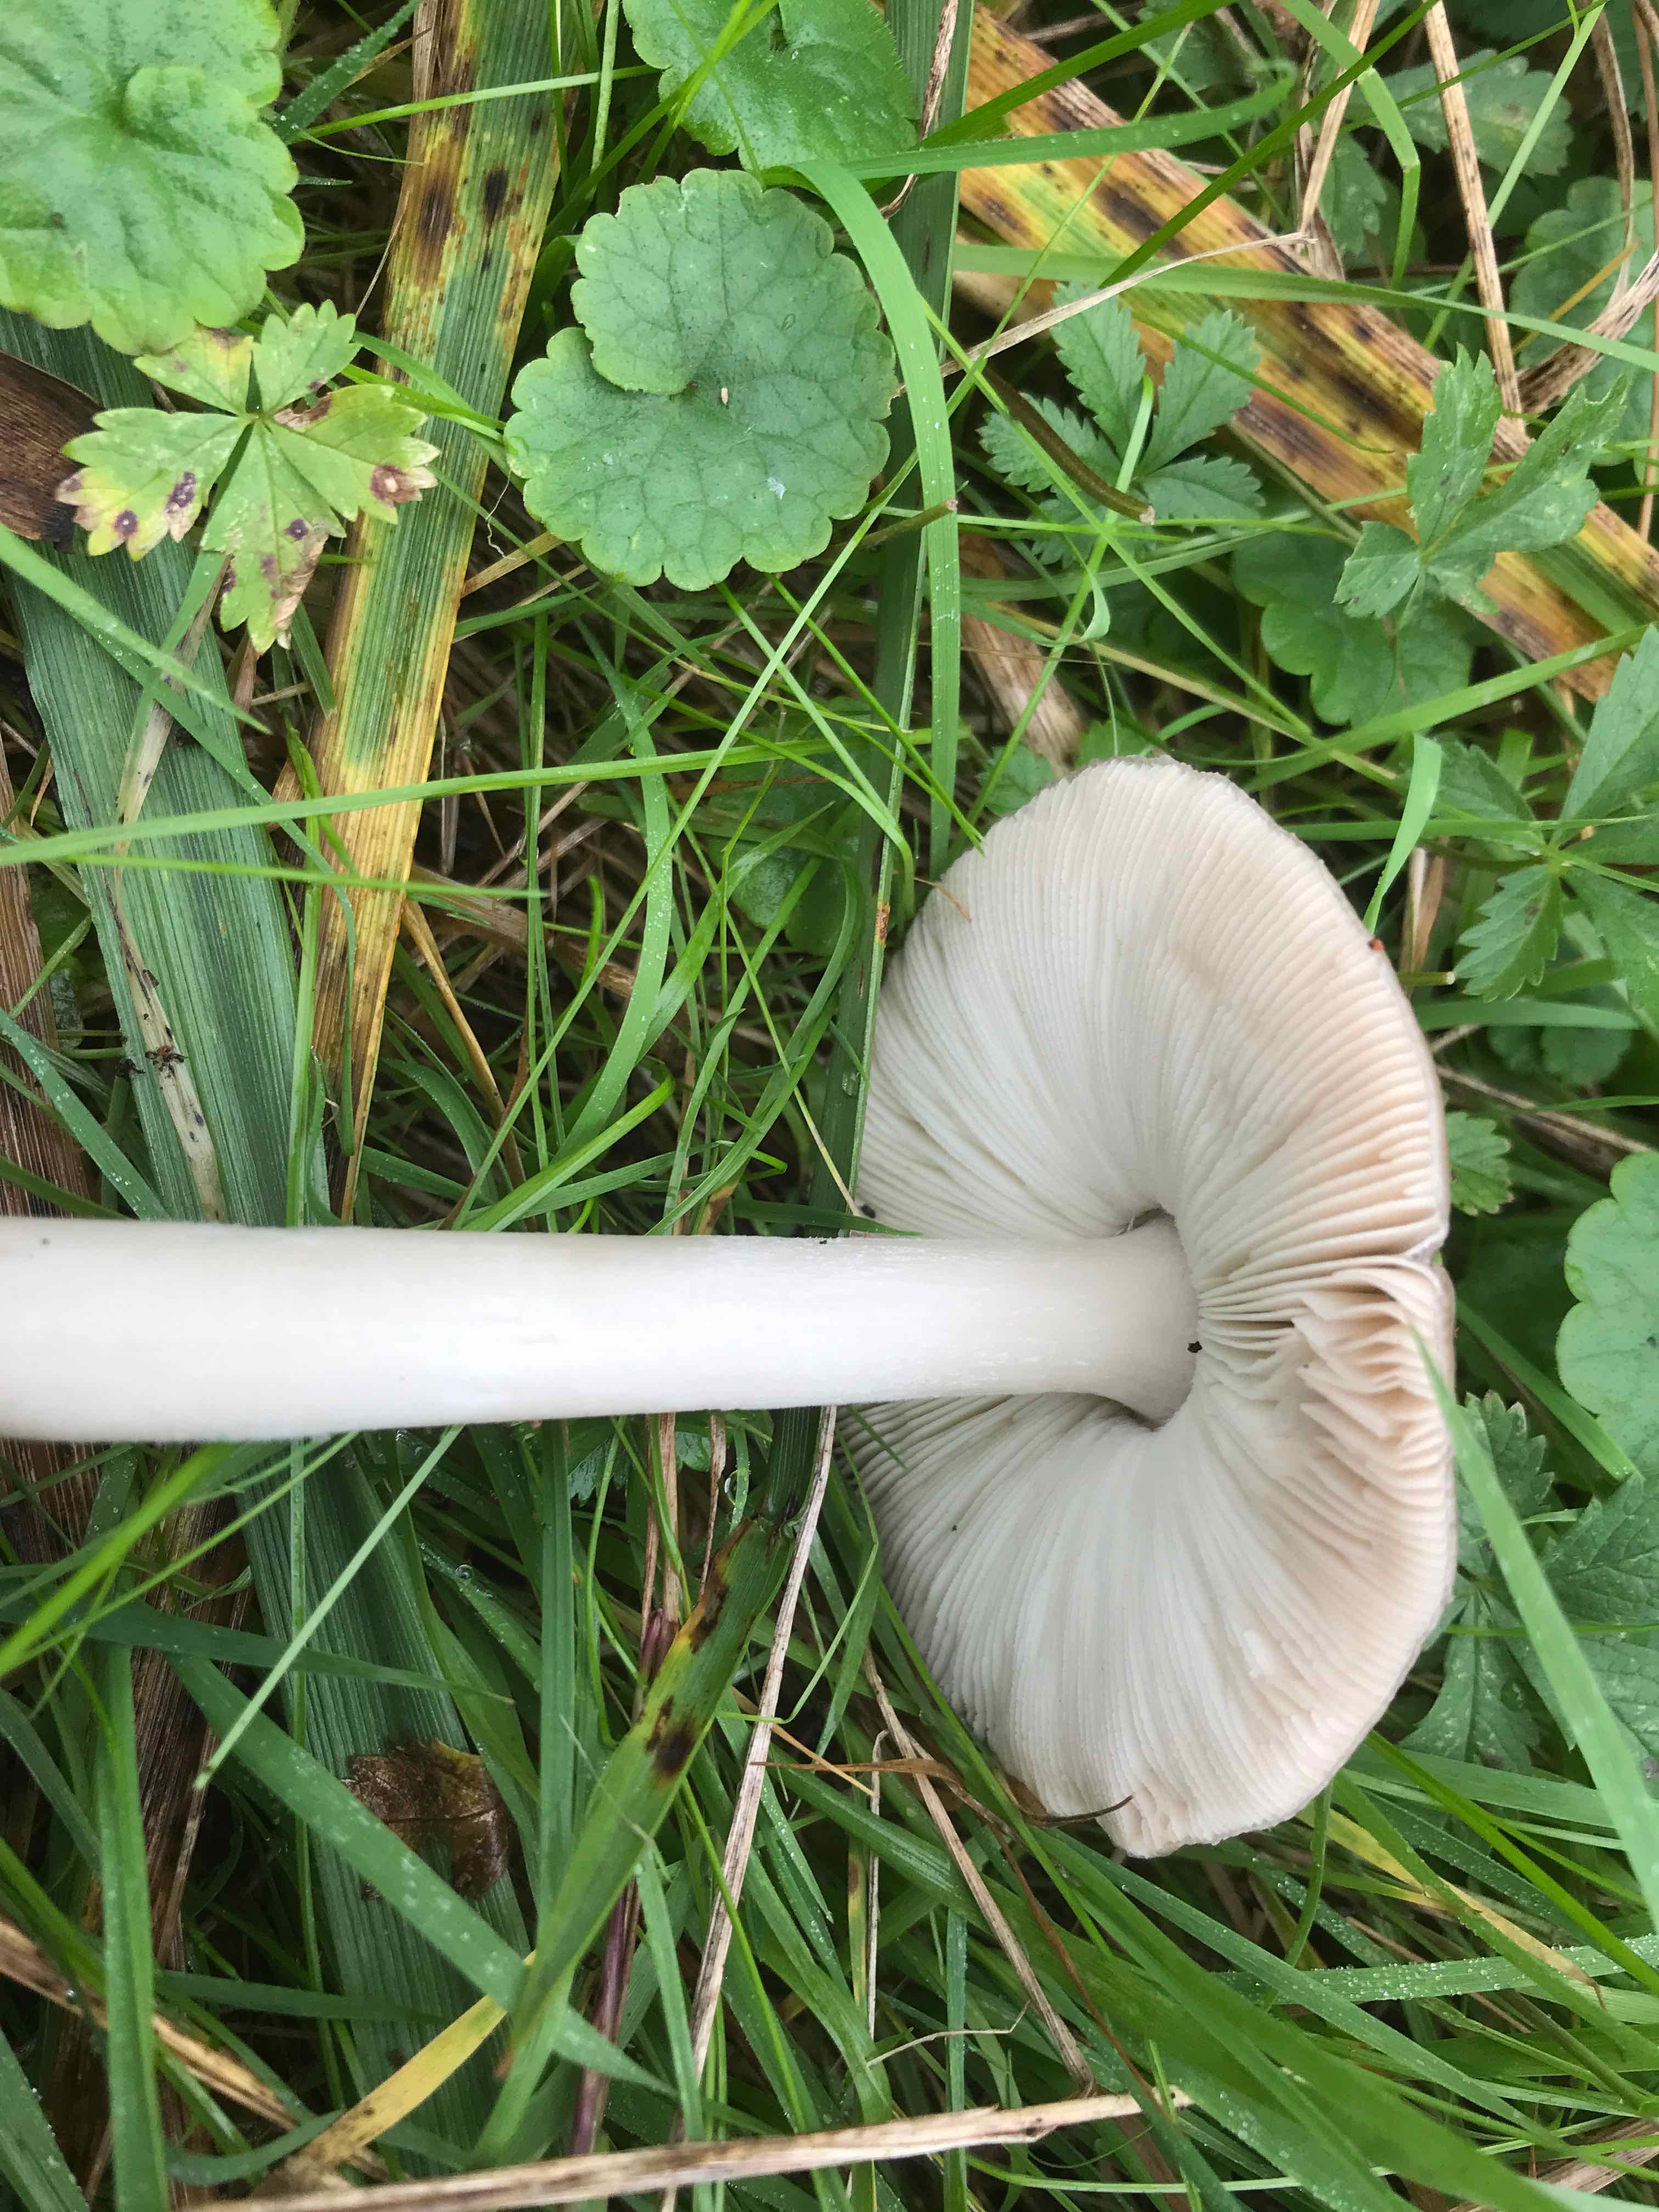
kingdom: Fungi
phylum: Basidiomycota
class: Agaricomycetes
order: Agaricales
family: Pluteaceae
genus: Volvopluteus
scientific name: Volvopluteus gloiocephalus
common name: høj posesvamp
